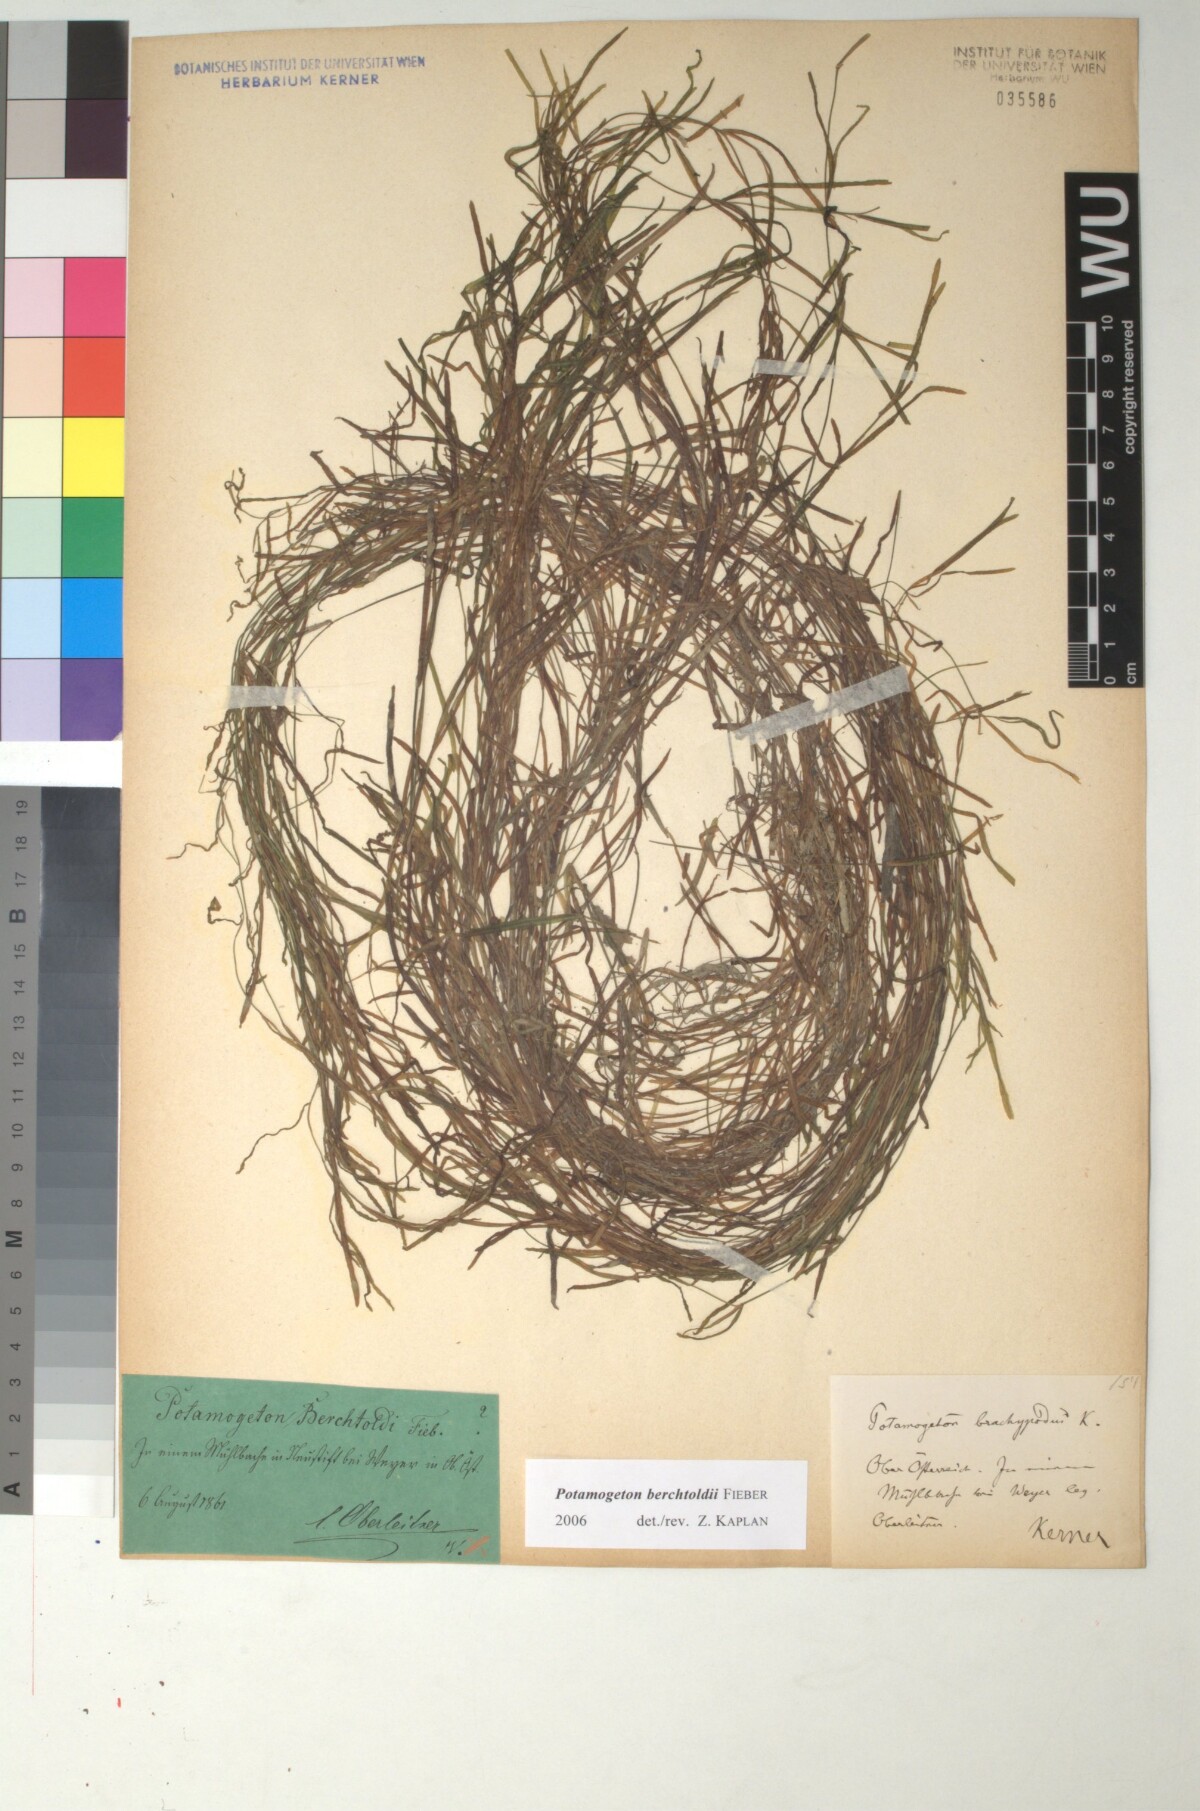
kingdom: Plantae
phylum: Tracheophyta
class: Liliopsida
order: Alismatales
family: Potamogetonaceae
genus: Potamogeton
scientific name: Potamogeton berchtoldii
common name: Small pondweed
